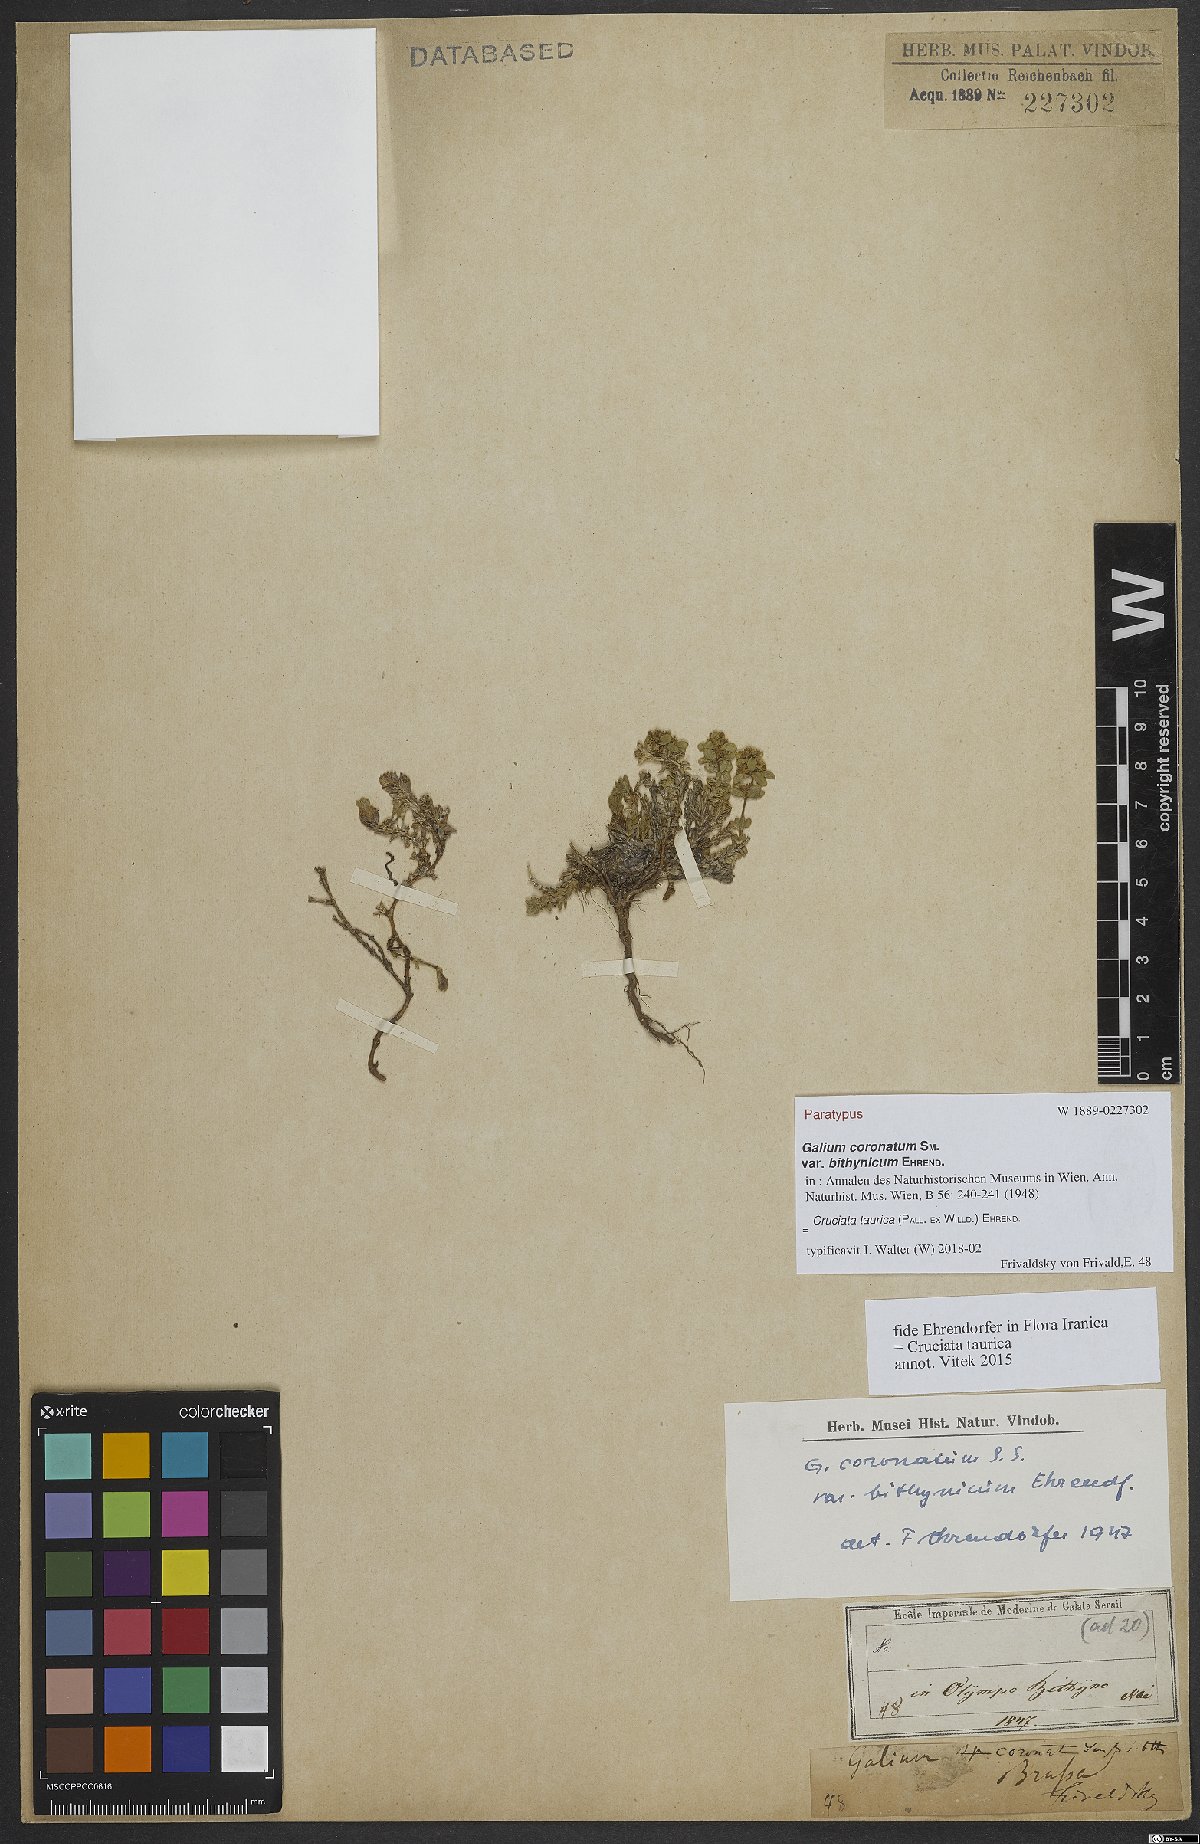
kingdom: Plantae
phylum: Tracheophyta
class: Magnoliopsida
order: Gentianales
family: Rubiaceae
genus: Cruciata
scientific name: Cruciata taurica
